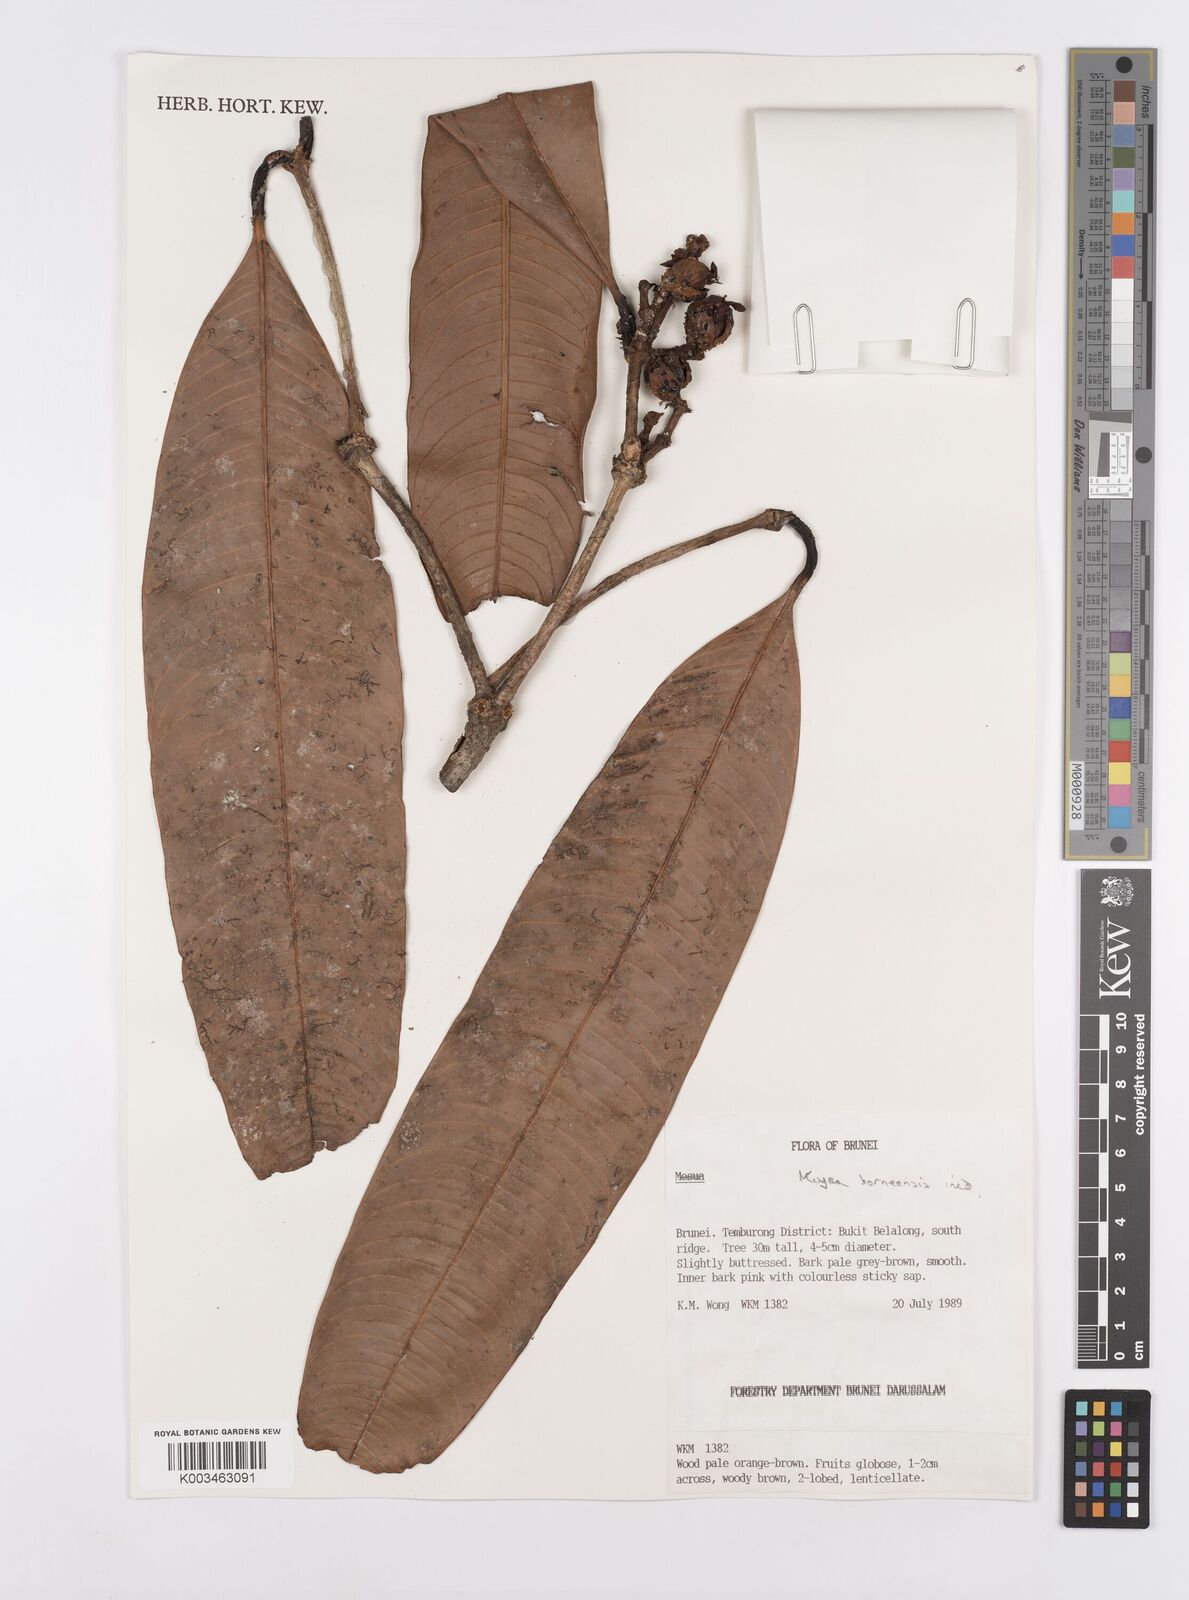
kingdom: Plantae
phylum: Tracheophyta
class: Magnoliopsida
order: Malpighiales
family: Calophyllaceae
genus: Kayea
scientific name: Kayea borneensis
